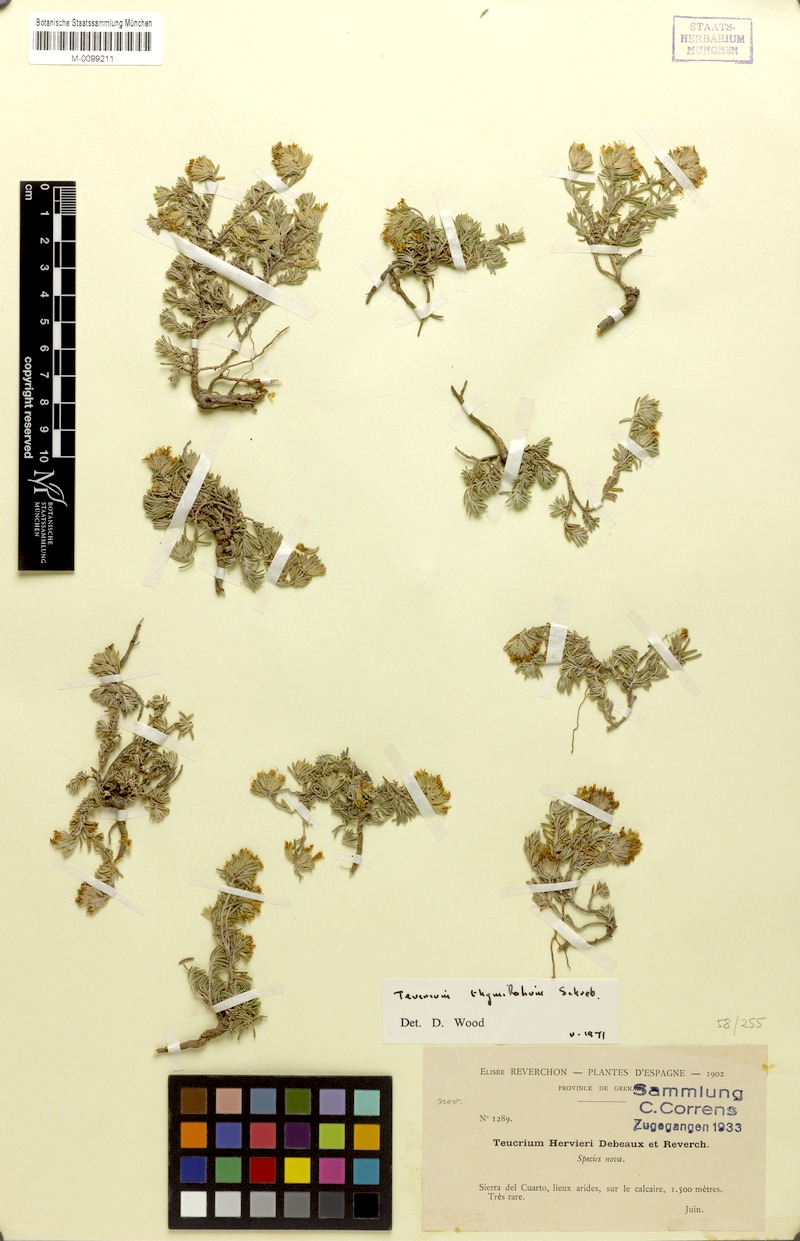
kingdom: Plantae
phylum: Tracheophyta
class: Magnoliopsida
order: Lamiales
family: Lamiaceae
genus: Teucrium
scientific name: Teucrium thymifolium
